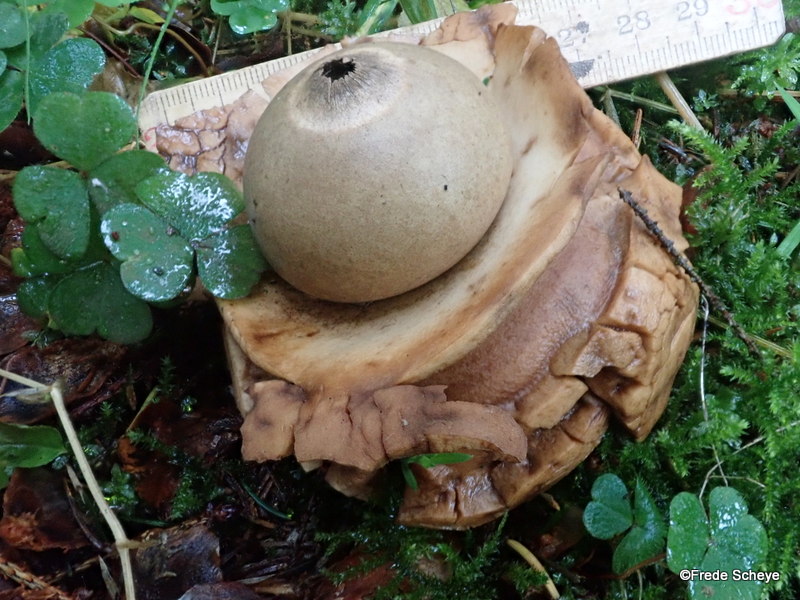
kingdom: Fungi
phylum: Basidiomycota
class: Agaricomycetes
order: Geastrales
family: Geastraceae
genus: Geastrum
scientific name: Geastrum michelianum
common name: kødet stjernebold
